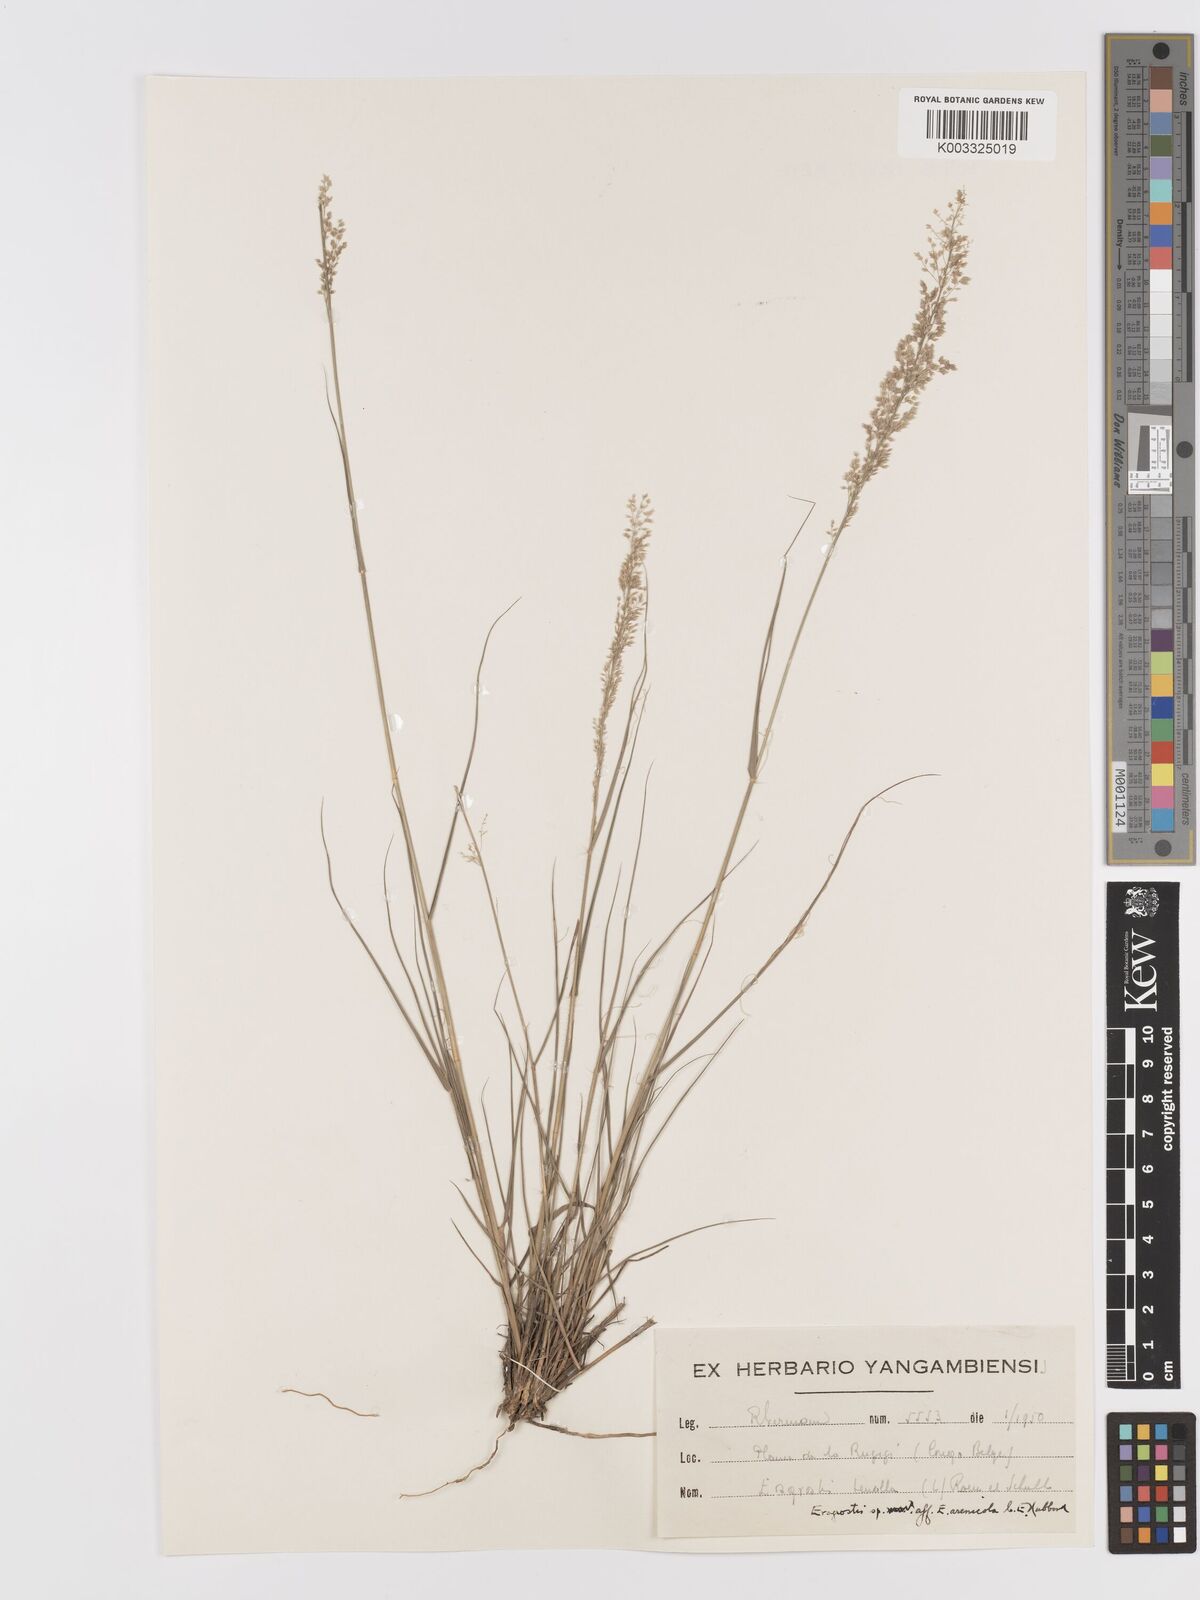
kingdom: Plantae
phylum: Tracheophyta
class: Liliopsida
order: Poales
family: Poaceae
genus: Eragrostis
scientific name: Eragrostis arenicola
